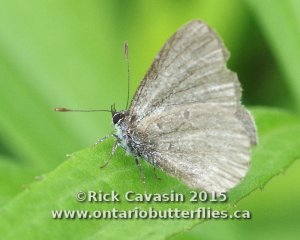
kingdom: Animalia
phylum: Arthropoda
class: Insecta
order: Lepidoptera
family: Lycaenidae
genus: Celastrina
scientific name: Celastrina lucia
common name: Northern Spring Azure
